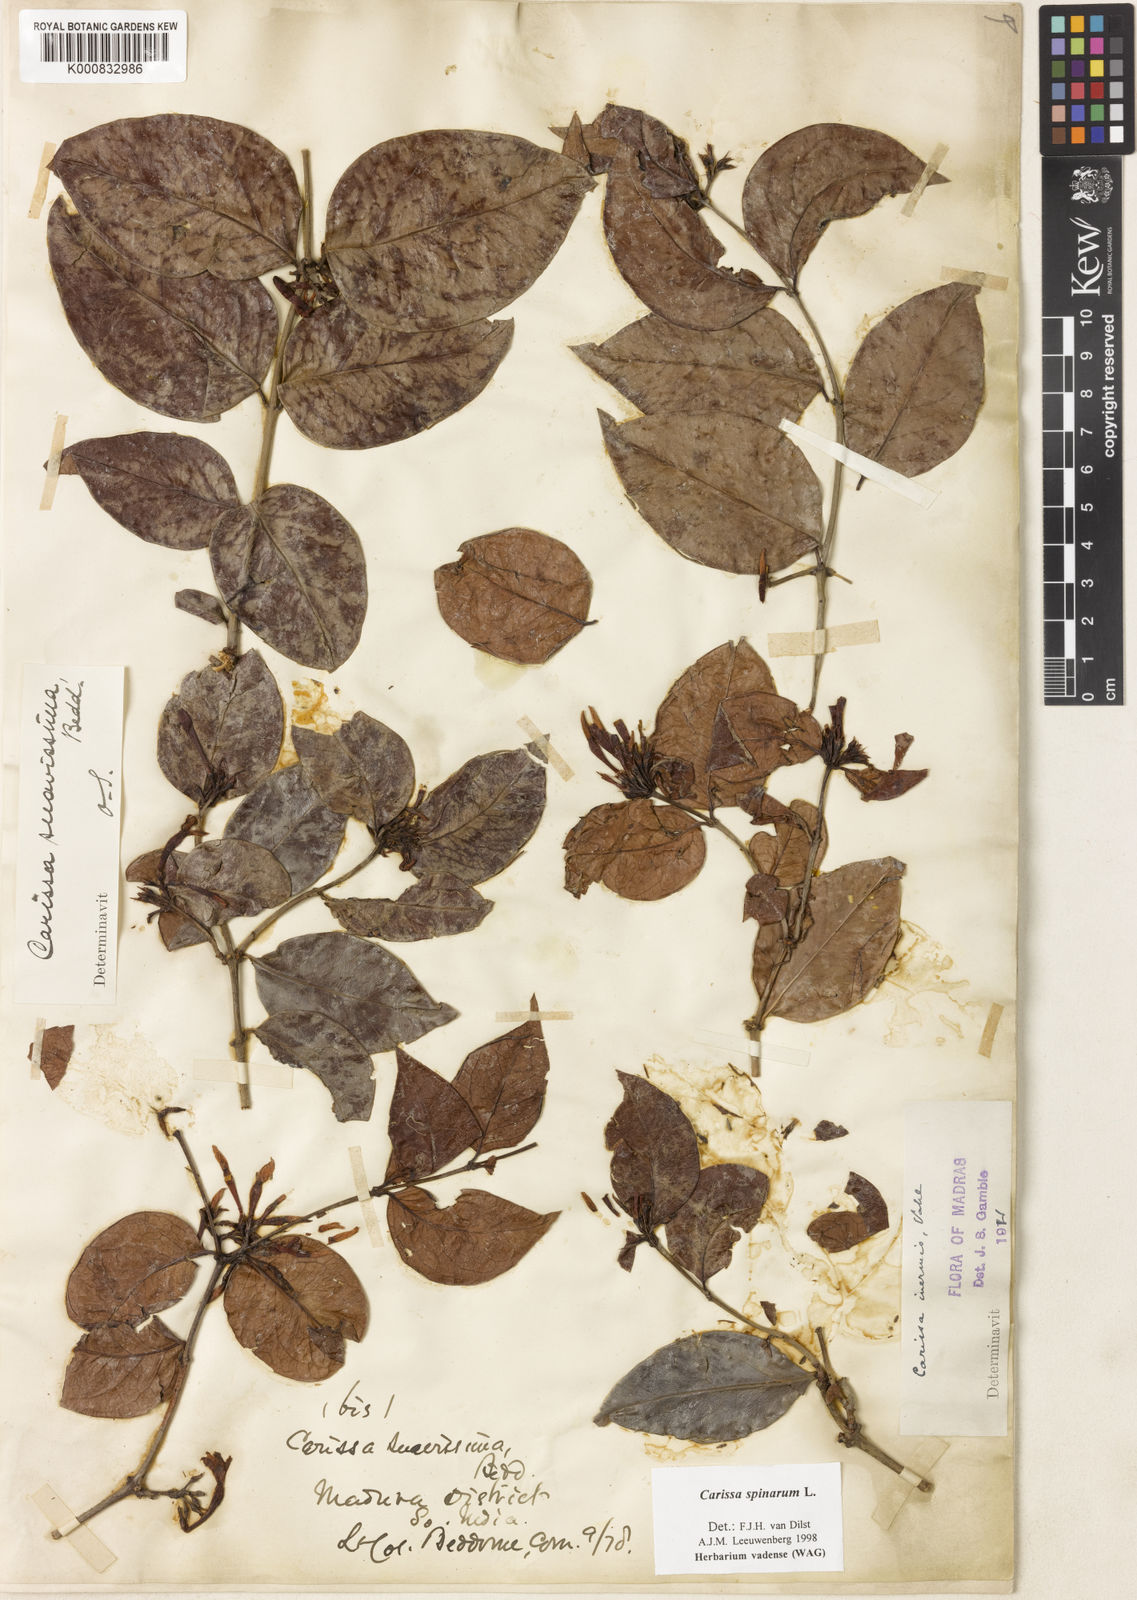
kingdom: Plantae
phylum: Tracheophyta
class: Magnoliopsida
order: Gentianales
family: Apocynaceae
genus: Carissa
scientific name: Carissa inermis
